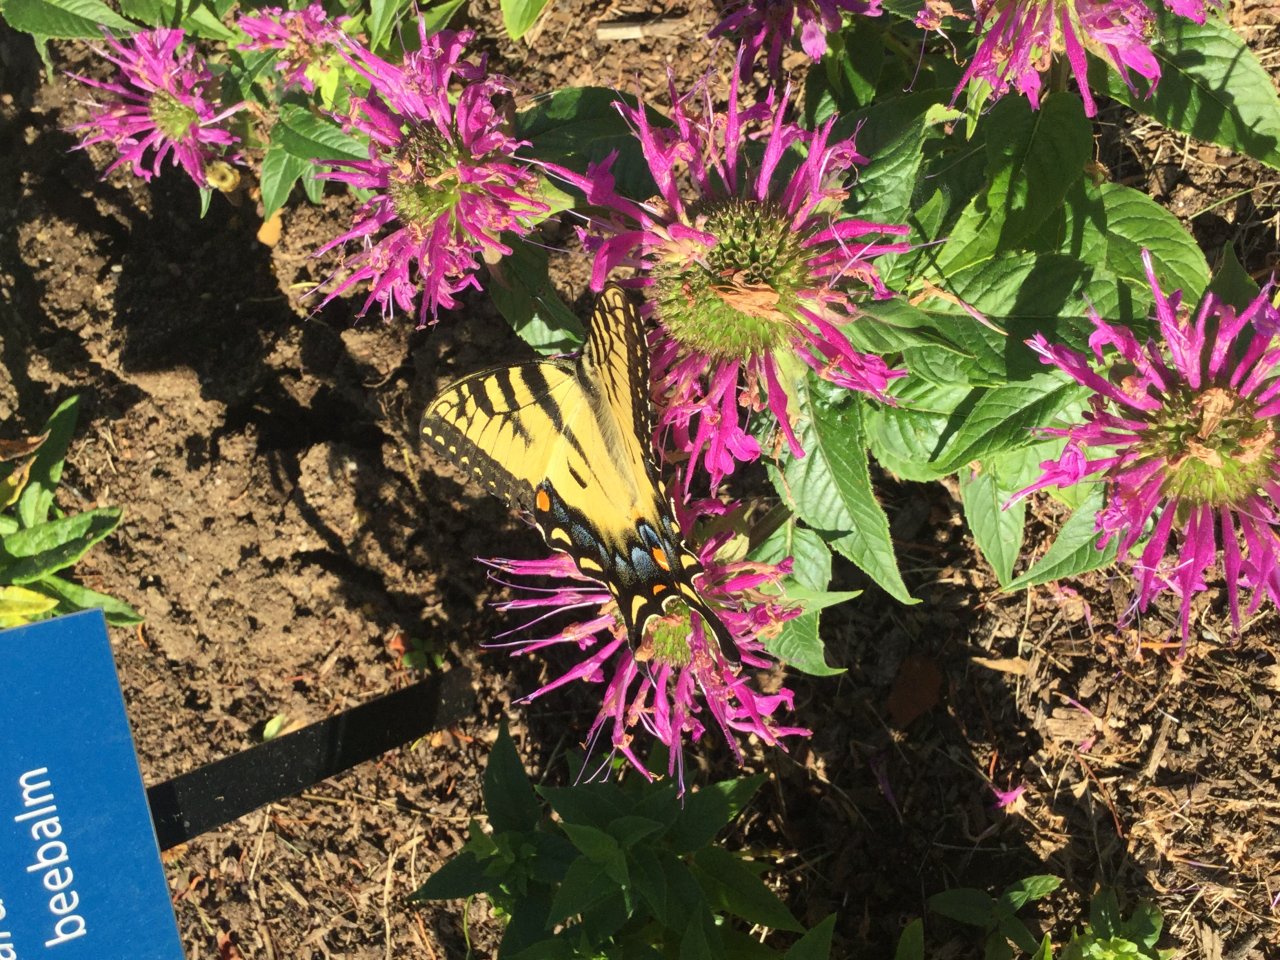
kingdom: Animalia
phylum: Arthropoda
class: Insecta
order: Lepidoptera
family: Papilionidae
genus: Pterourus
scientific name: Pterourus
